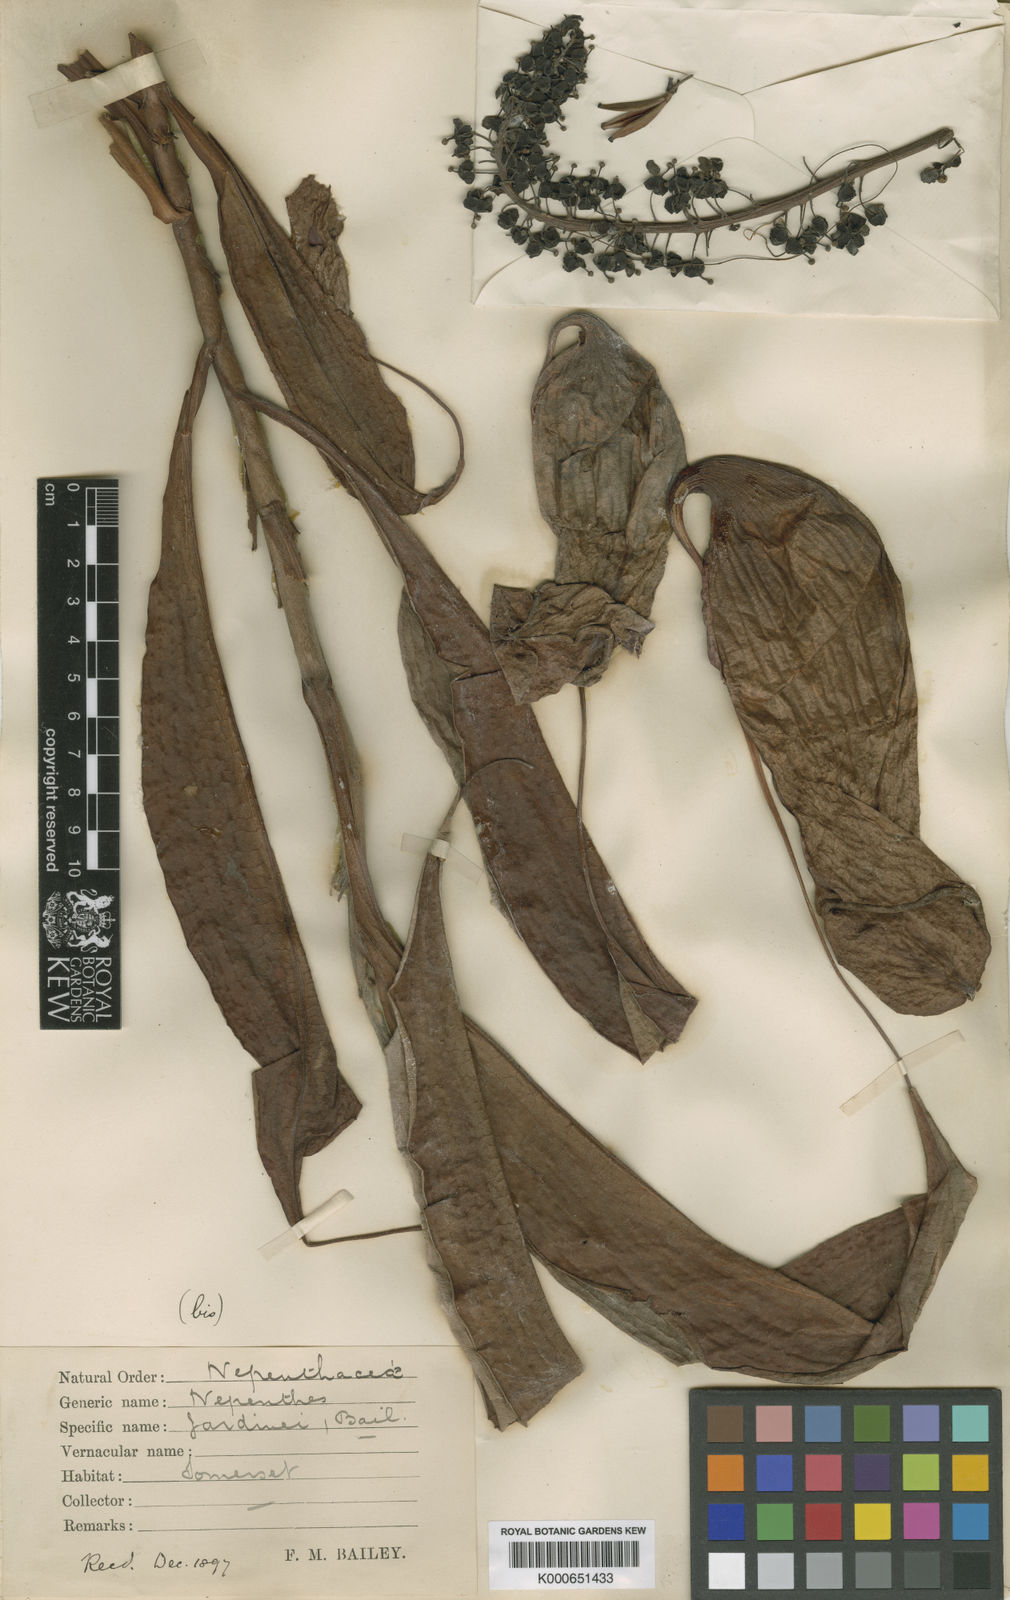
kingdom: Plantae
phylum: Tracheophyta
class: Magnoliopsida
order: Caryophyllales
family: Nepenthaceae
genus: Nepenthes
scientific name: Nepenthes mirabilis
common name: Tropical pitcherplant
